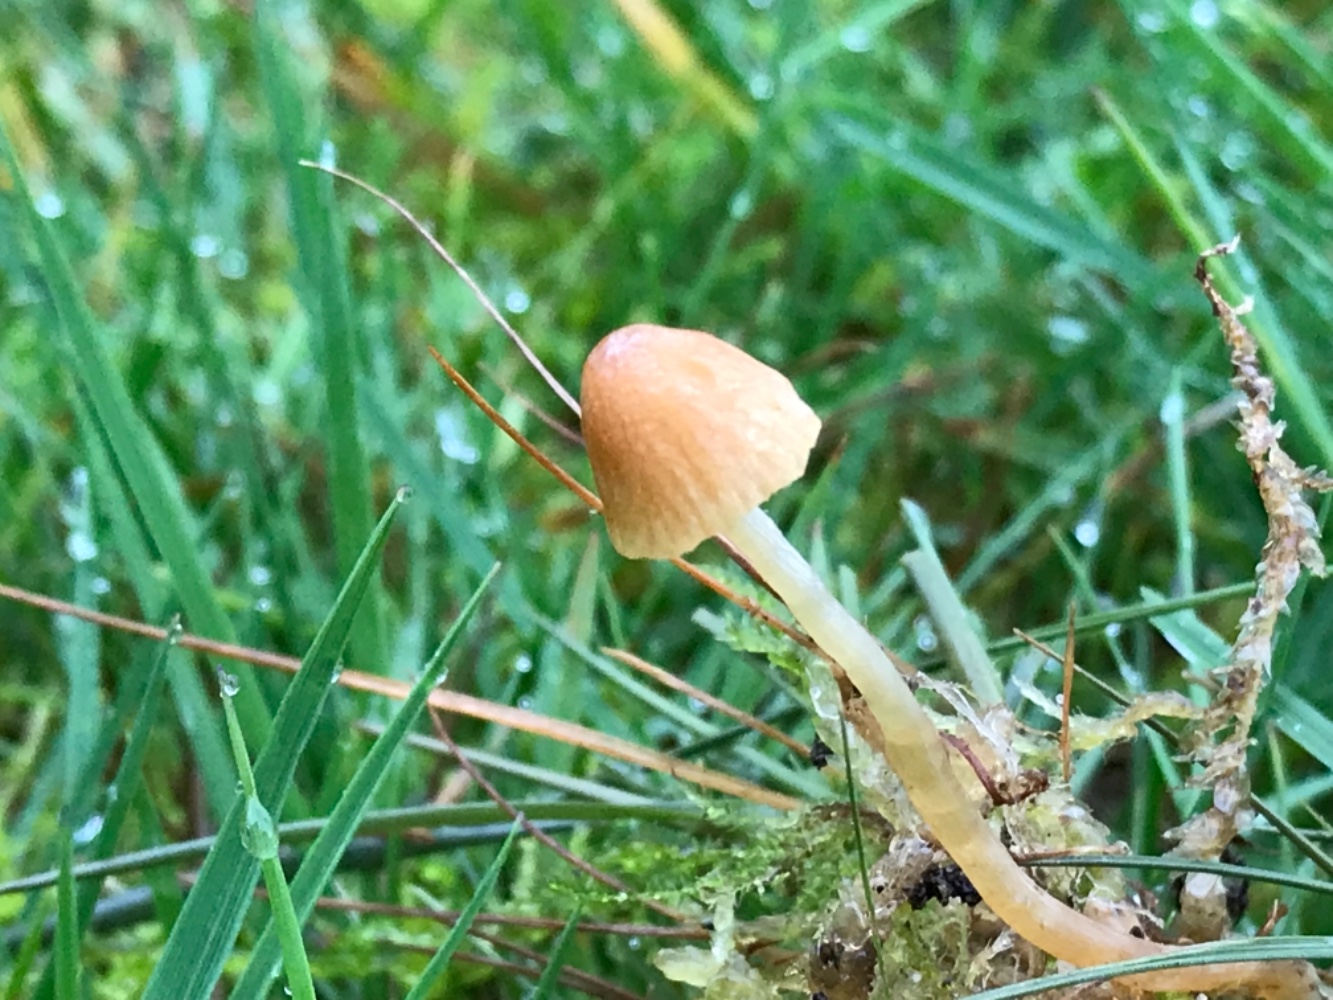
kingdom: Fungi
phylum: Basidiomycota
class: Agaricomycetes
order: Agaricales
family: Hymenogastraceae
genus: Galerina
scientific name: Galerina
